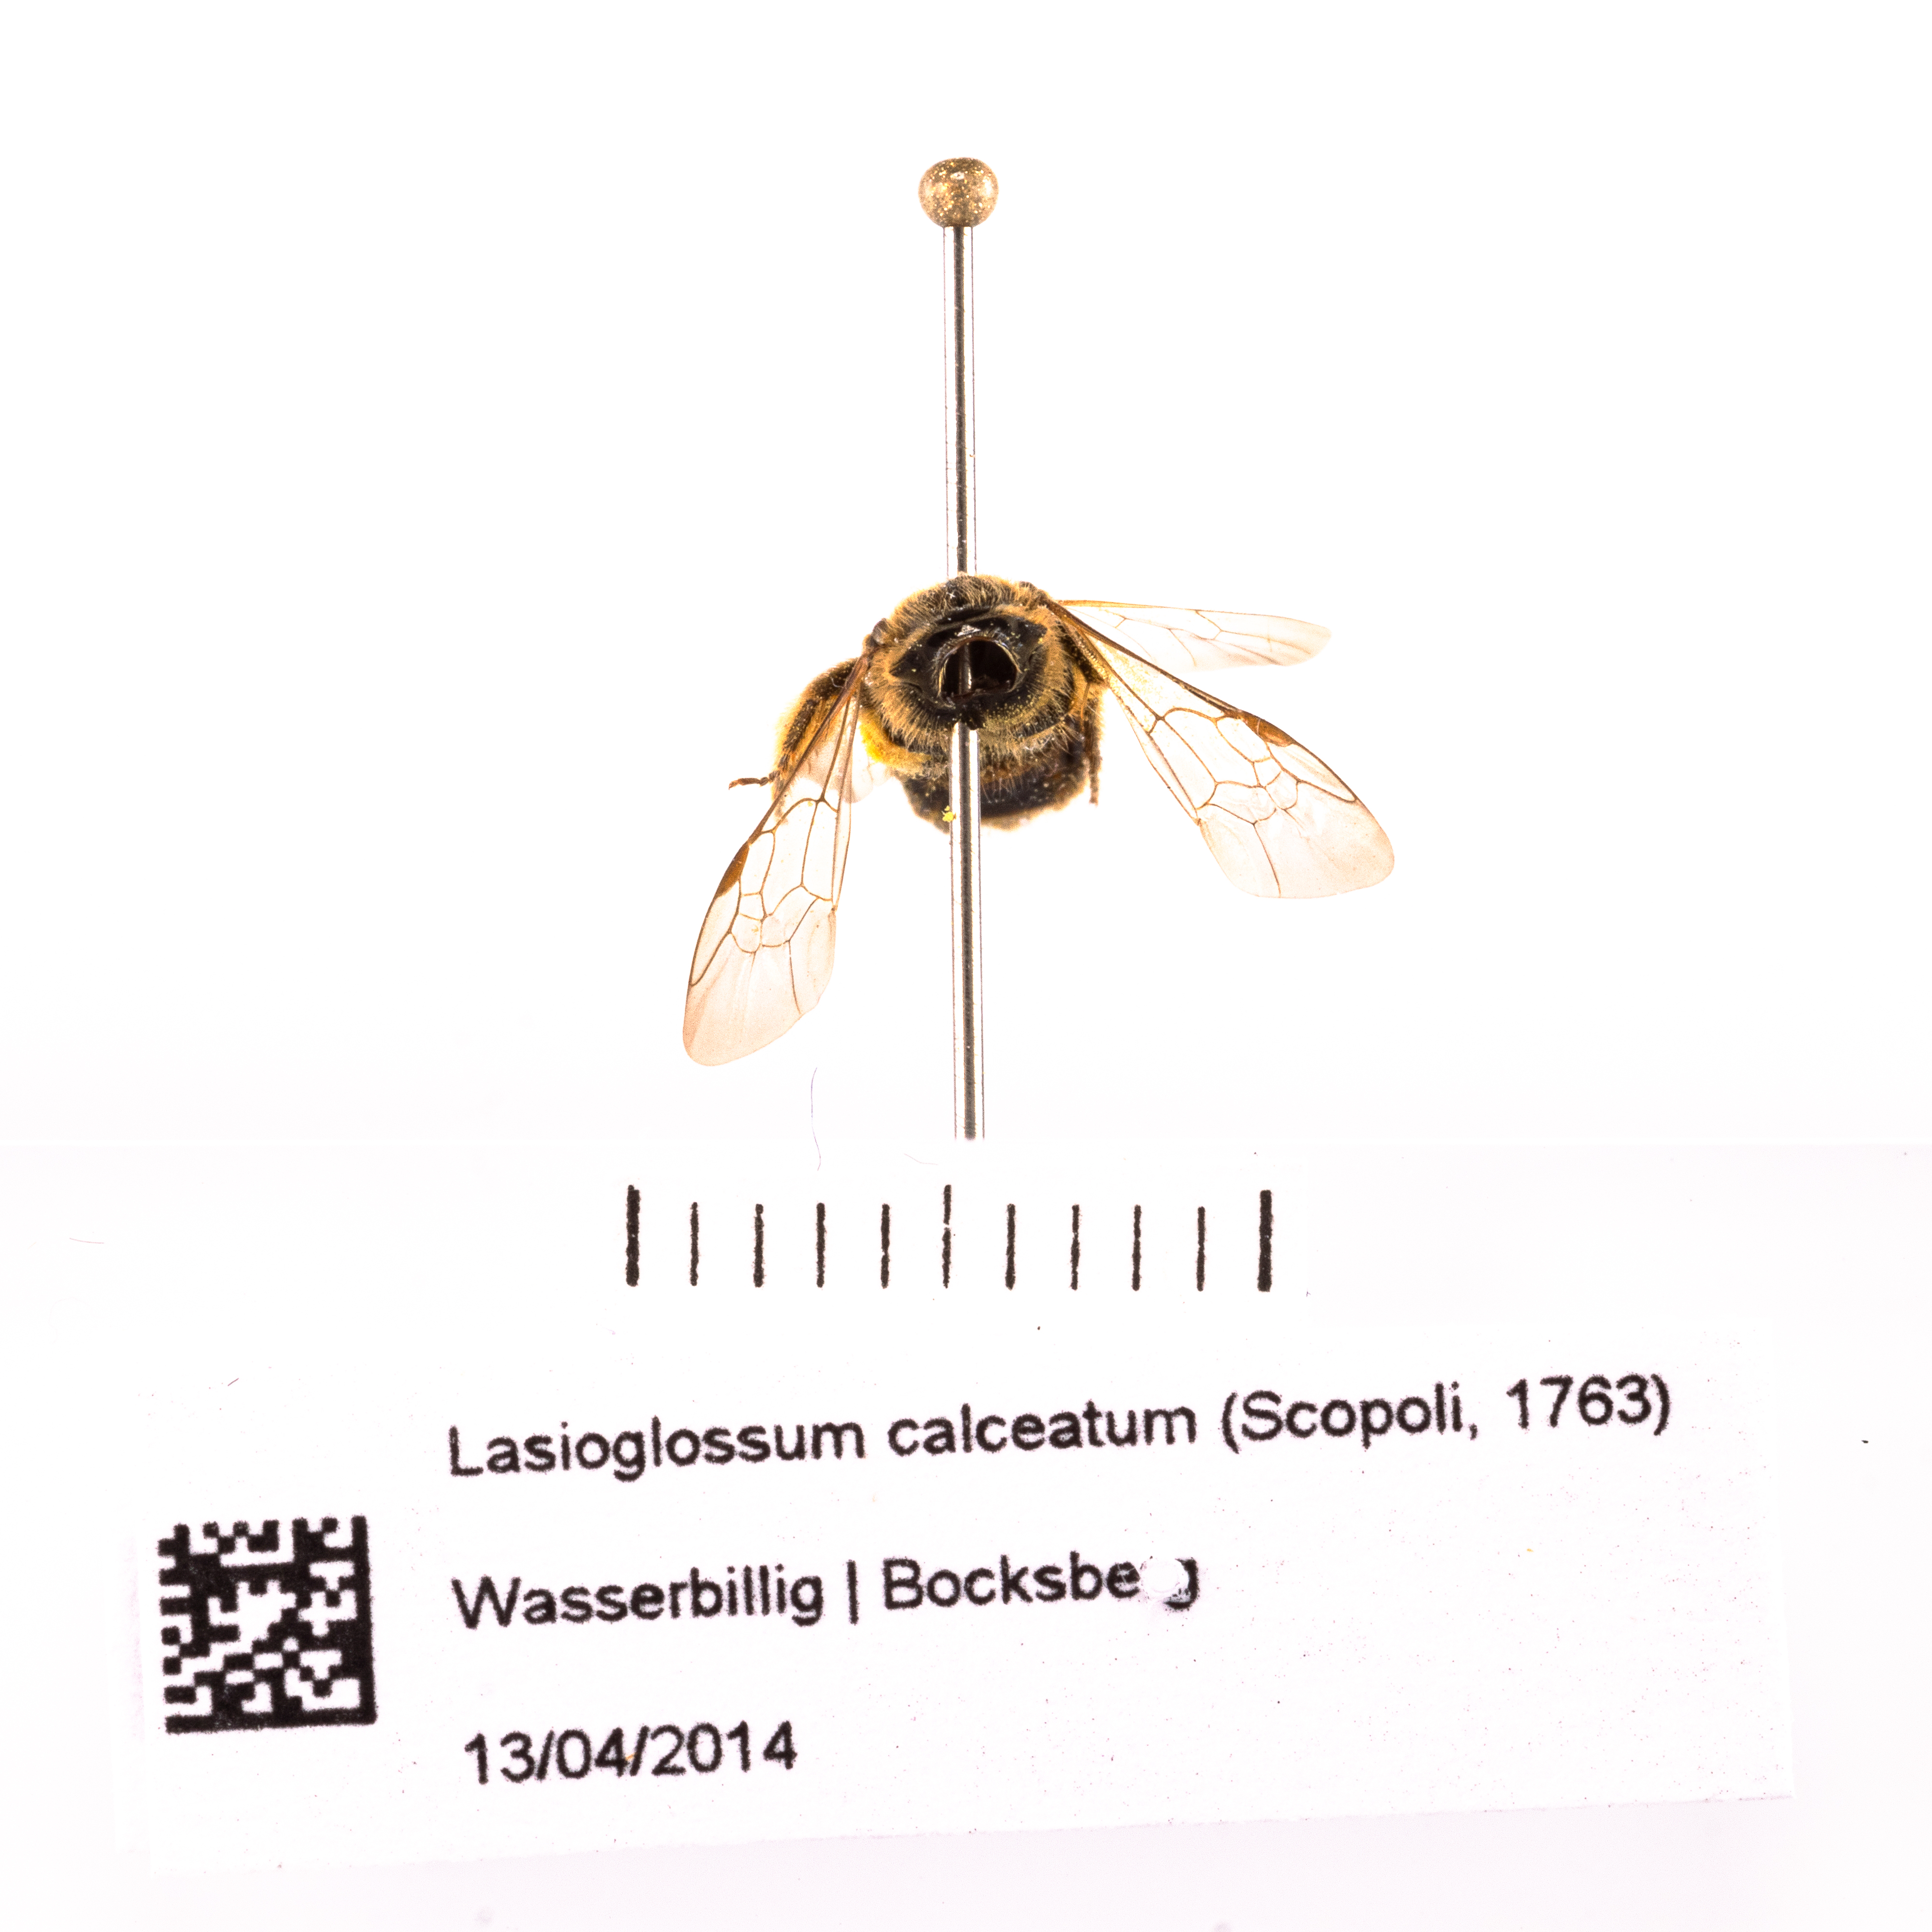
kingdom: Animalia
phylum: Arthropoda
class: Insecta
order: Hymenoptera
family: Halictidae
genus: Lasioglossum
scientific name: Lasioglossum calceatum
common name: Common furrow bee
